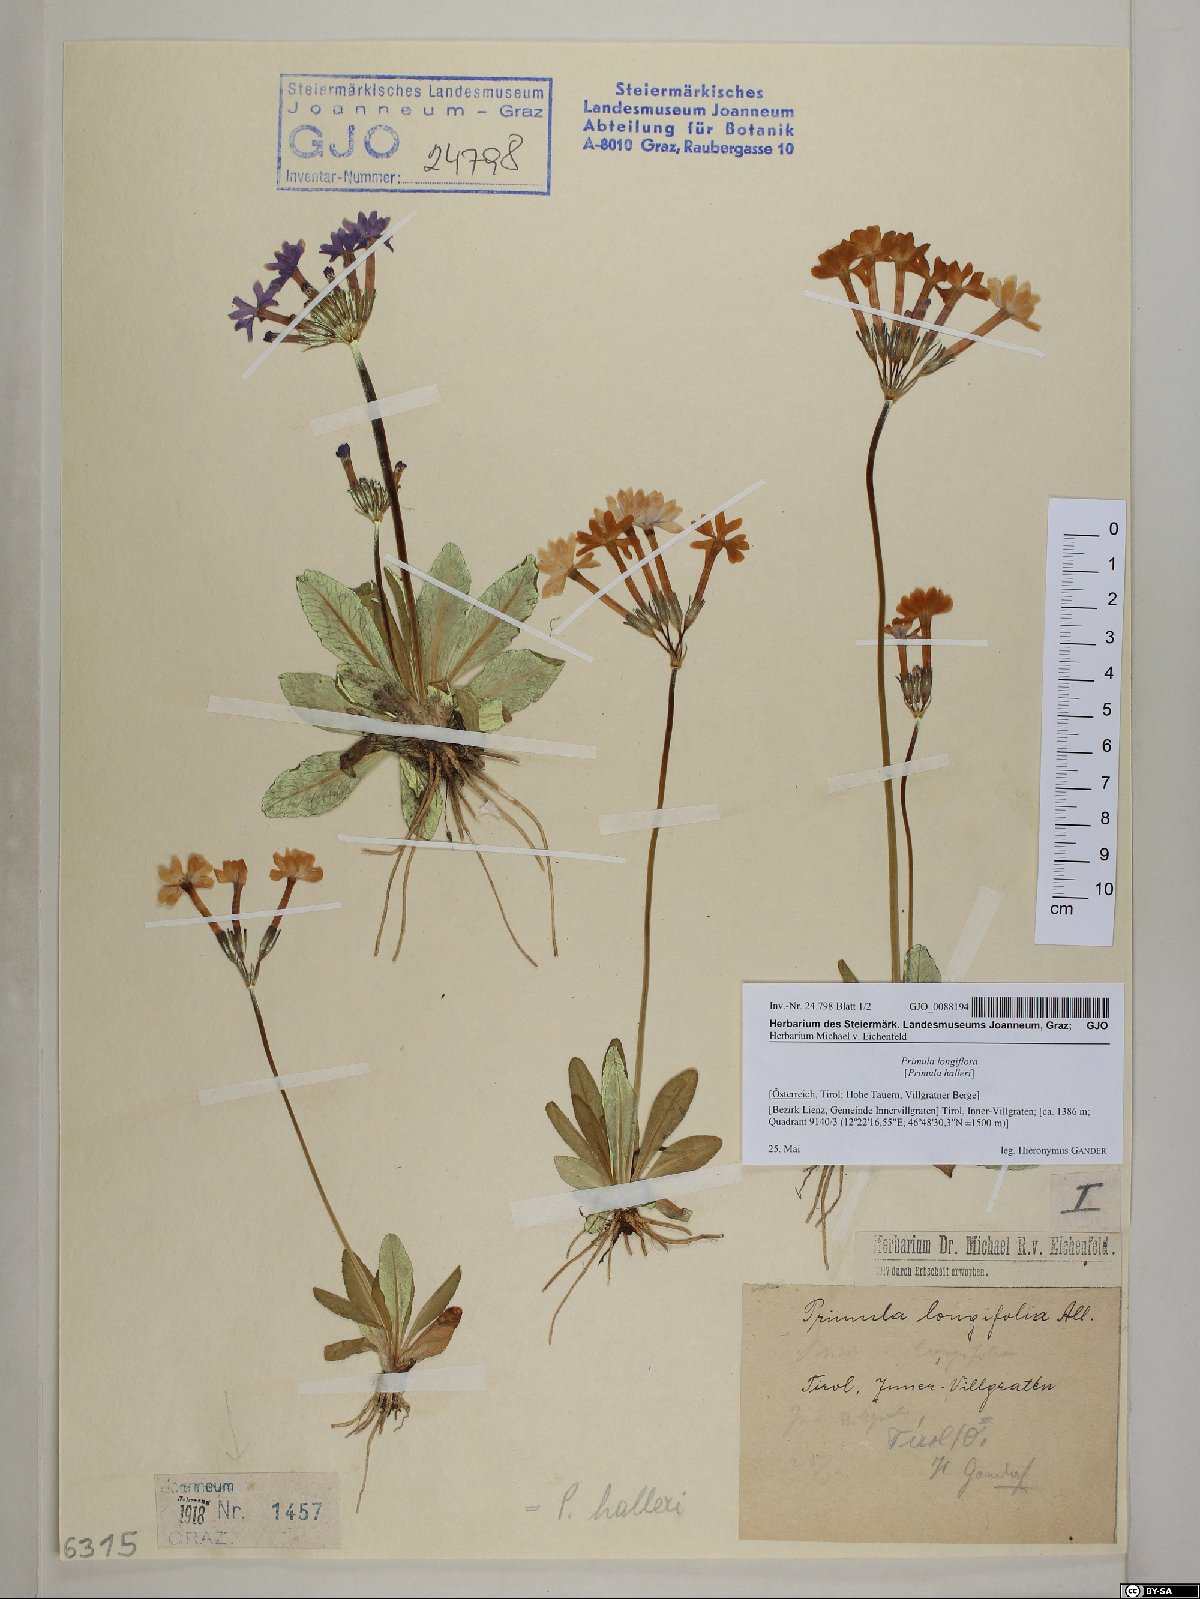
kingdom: Plantae
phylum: Tracheophyta
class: Magnoliopsida
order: Ericales
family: Primulaceae
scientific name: Primulaceae
